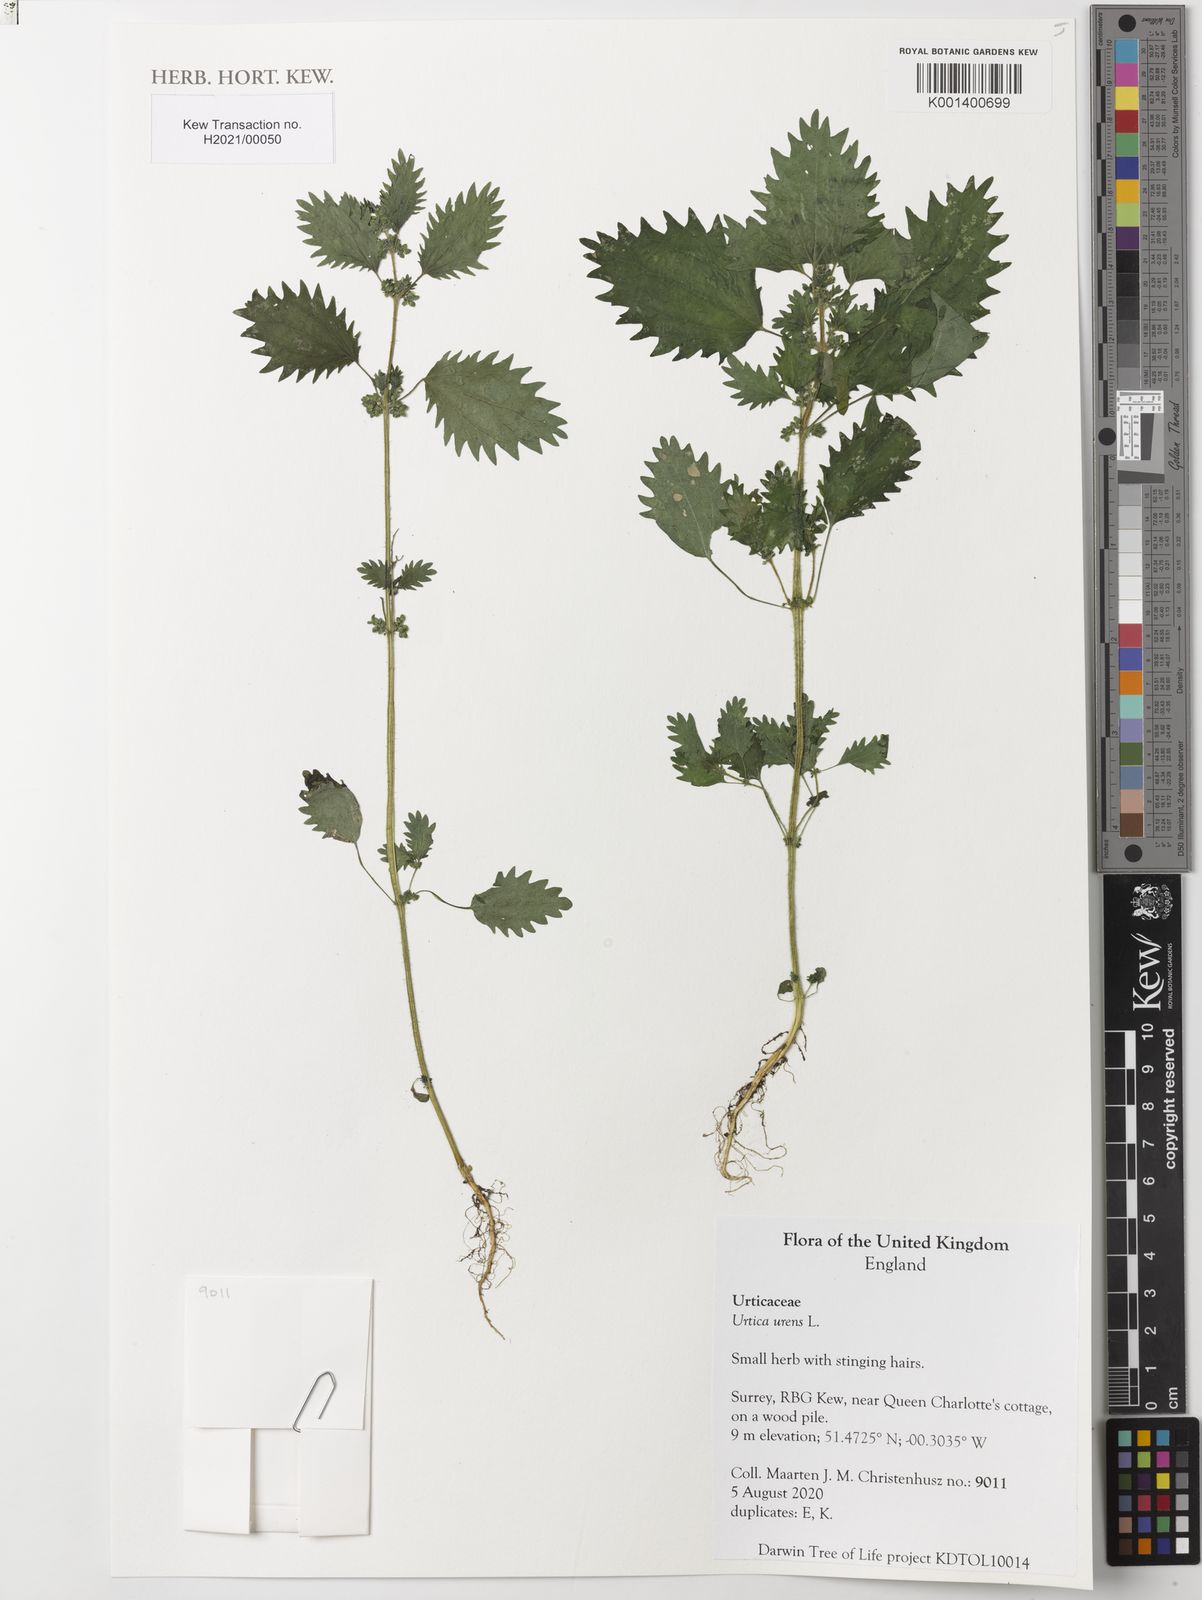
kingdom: Plantae
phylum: Tracheophyta
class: Magnoliopsida
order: Rosales
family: Urticaceae
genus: Urtica
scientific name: Urtica urens
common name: Dwarf nettle
